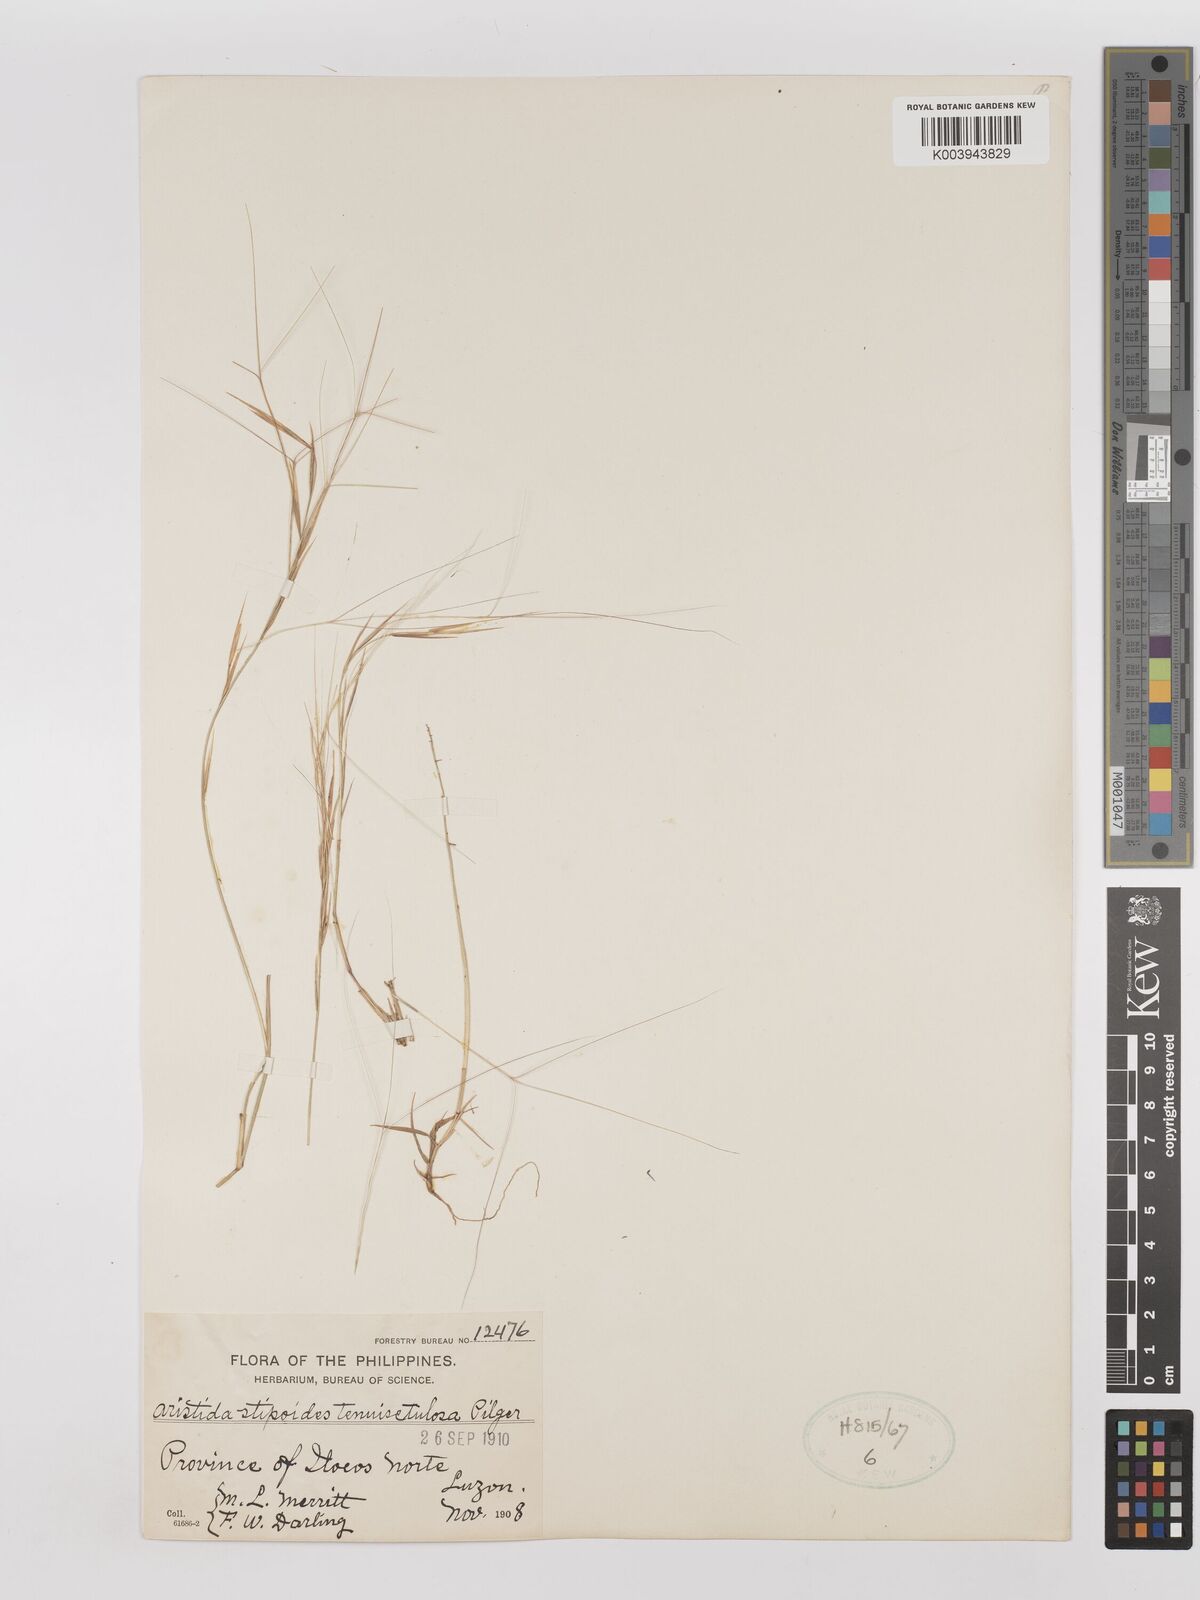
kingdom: Plantae
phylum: Tracheophyta
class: Liliopsida
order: Poales
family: Poaceae
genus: Aristida
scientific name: Aristida holathera
